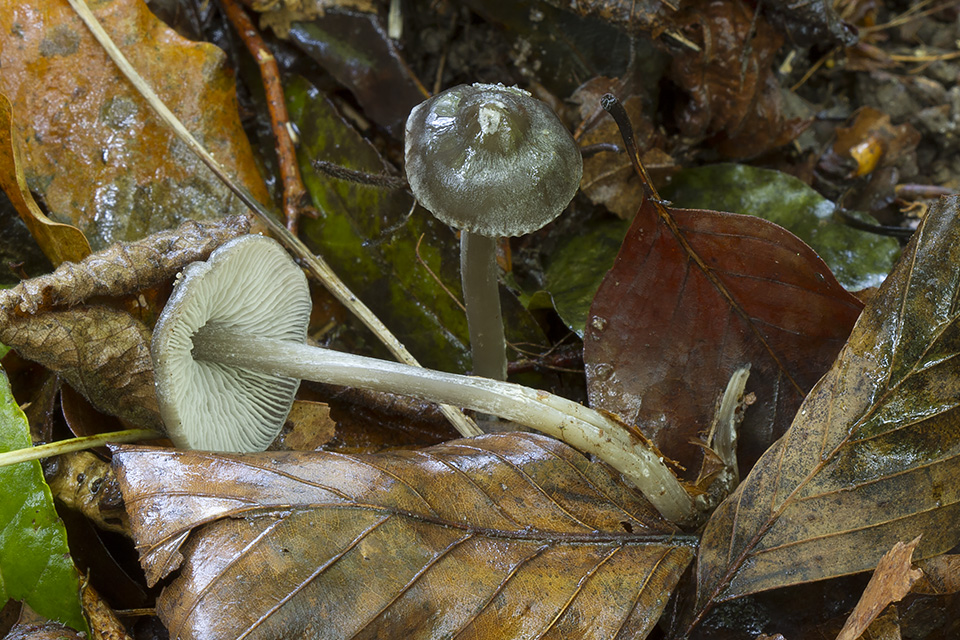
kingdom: Fungi
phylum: Basidiomycota
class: Agaricomycetes
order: Agaricales
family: Lyophyllaceae
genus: Myochromella
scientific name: Myochromella boudieri
